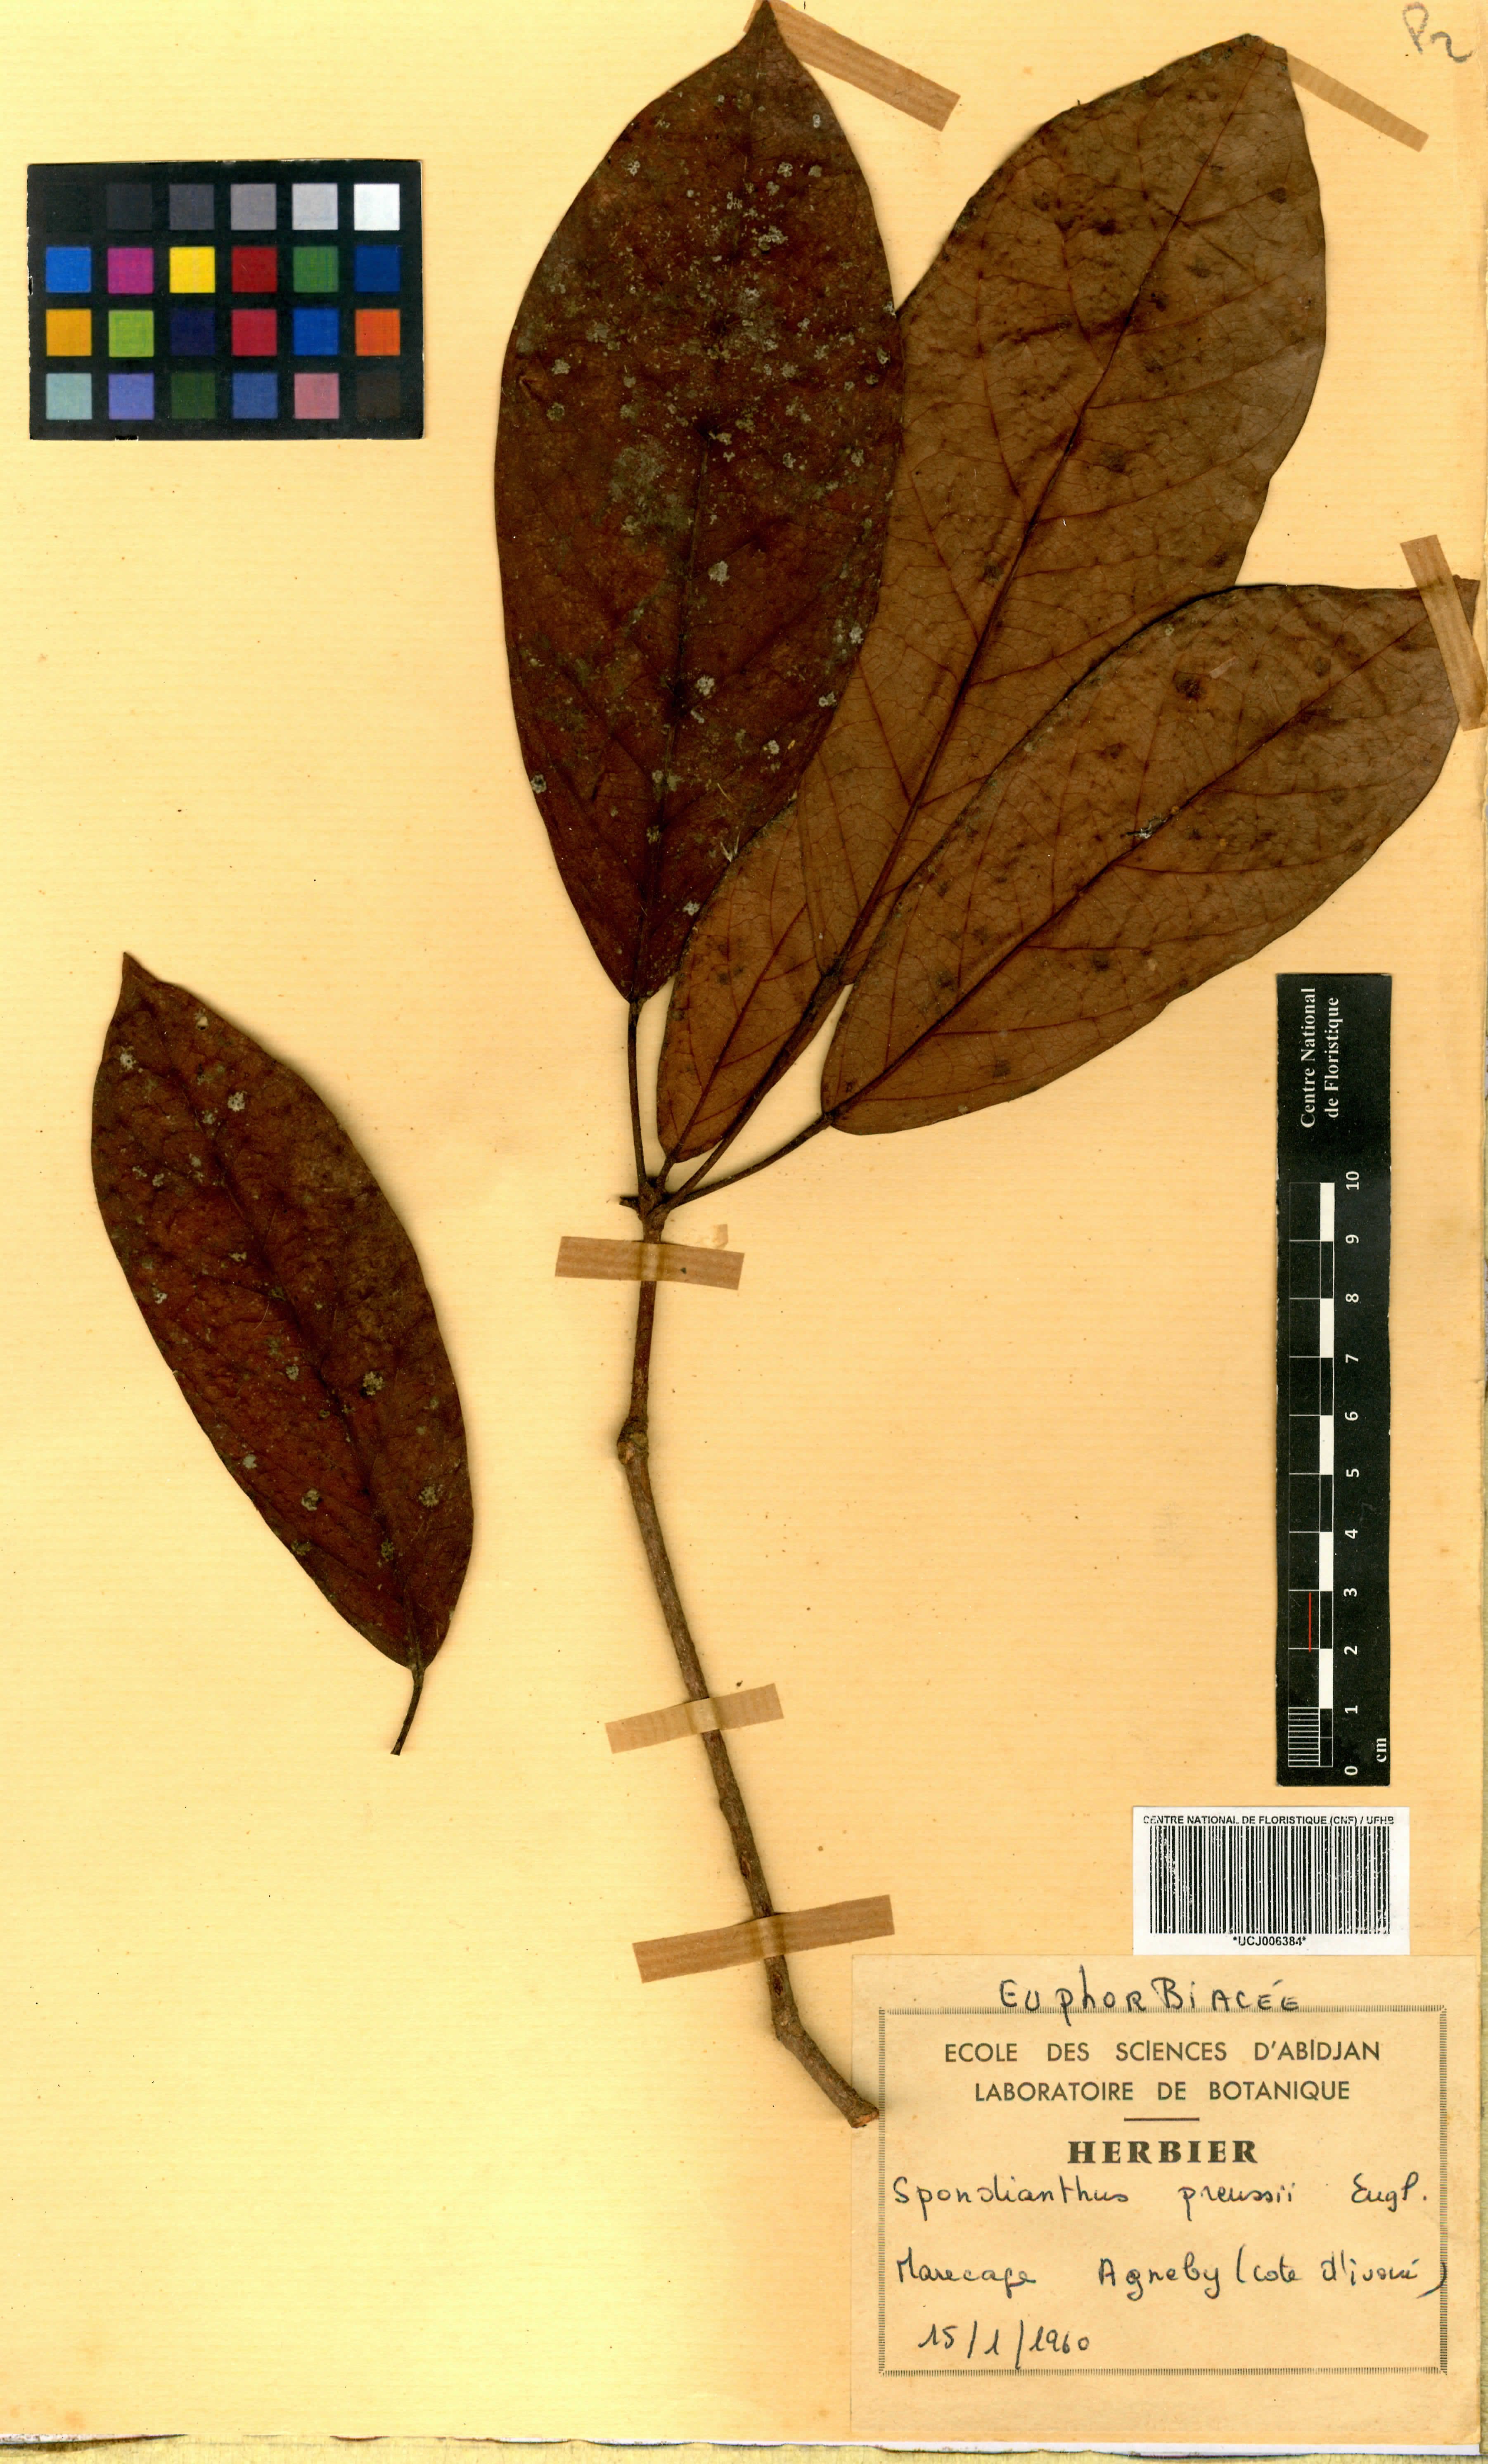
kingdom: Plantae
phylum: Tracheophyta
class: Magnoliopsida
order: Malpighiales
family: Phyllanthaceae
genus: Spondianthus
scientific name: Spondianthus preussii
